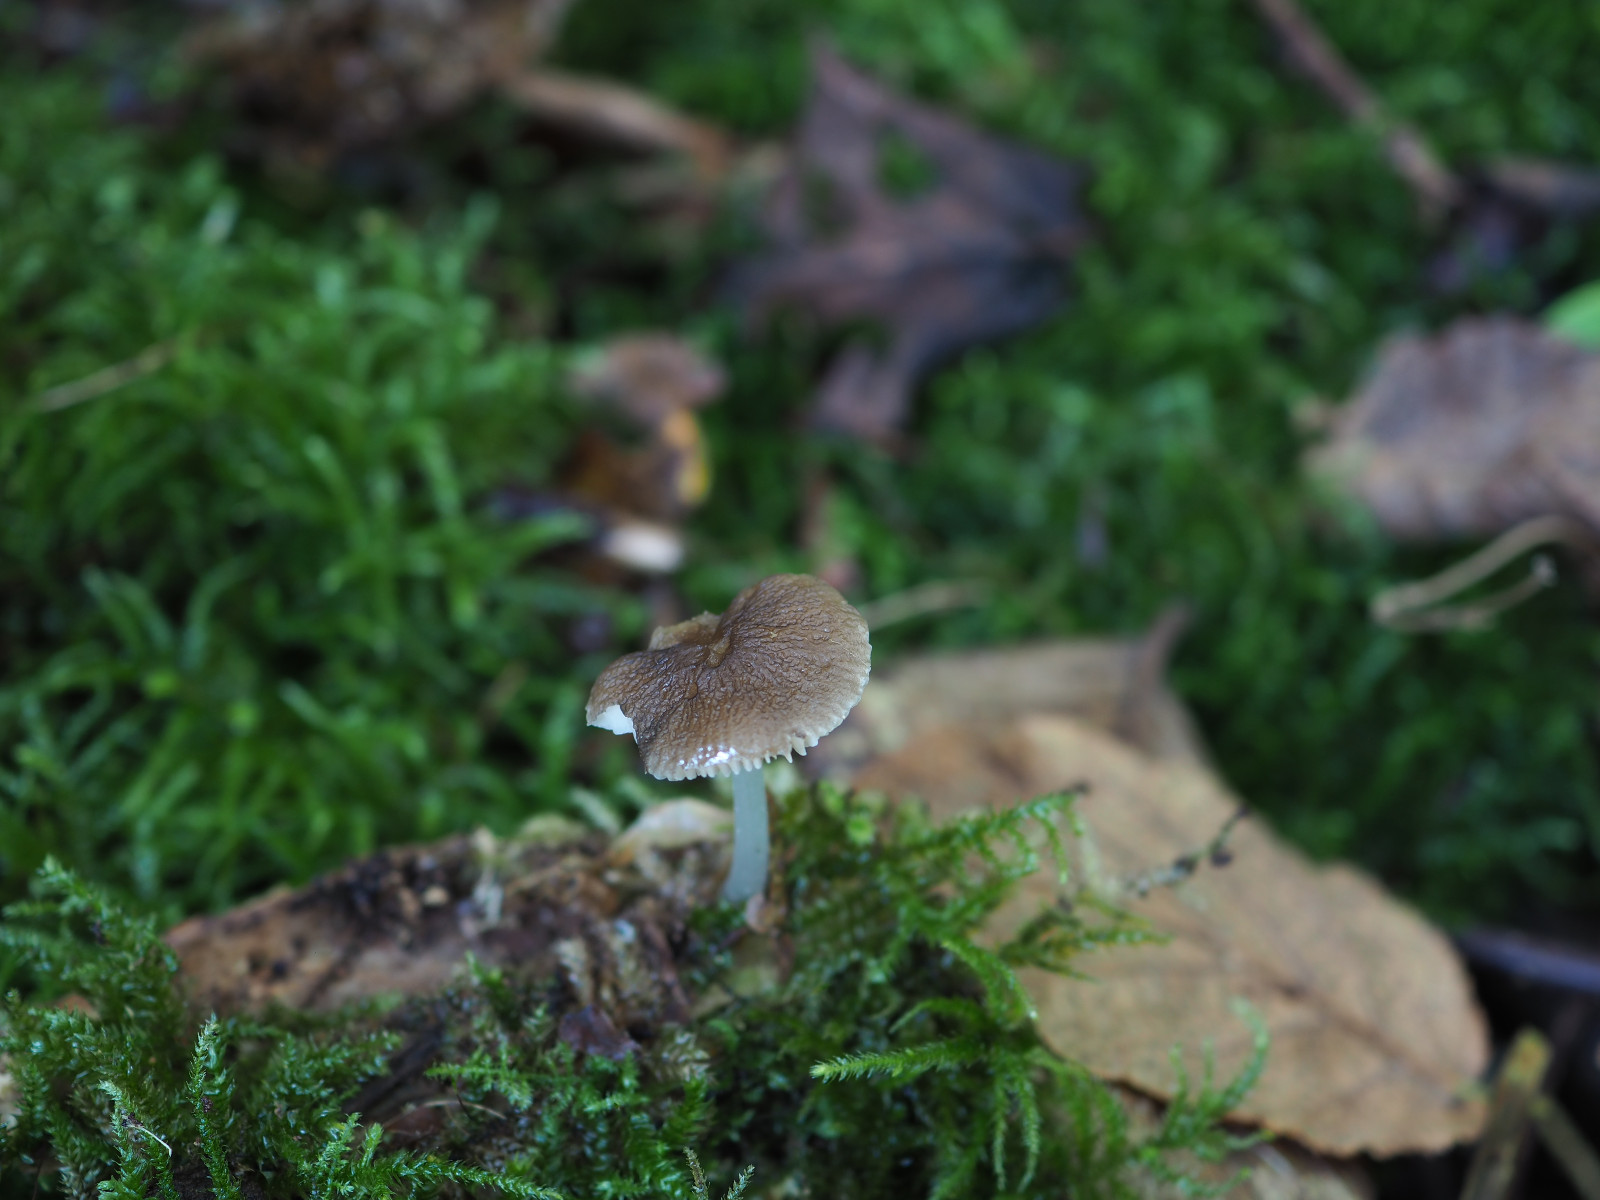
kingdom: Fungi
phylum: Basidiomycota
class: Agaricomycetes
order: Agaricales
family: Pluteaceae
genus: Pluteus
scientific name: Pluteus
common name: pudret skærmhat
